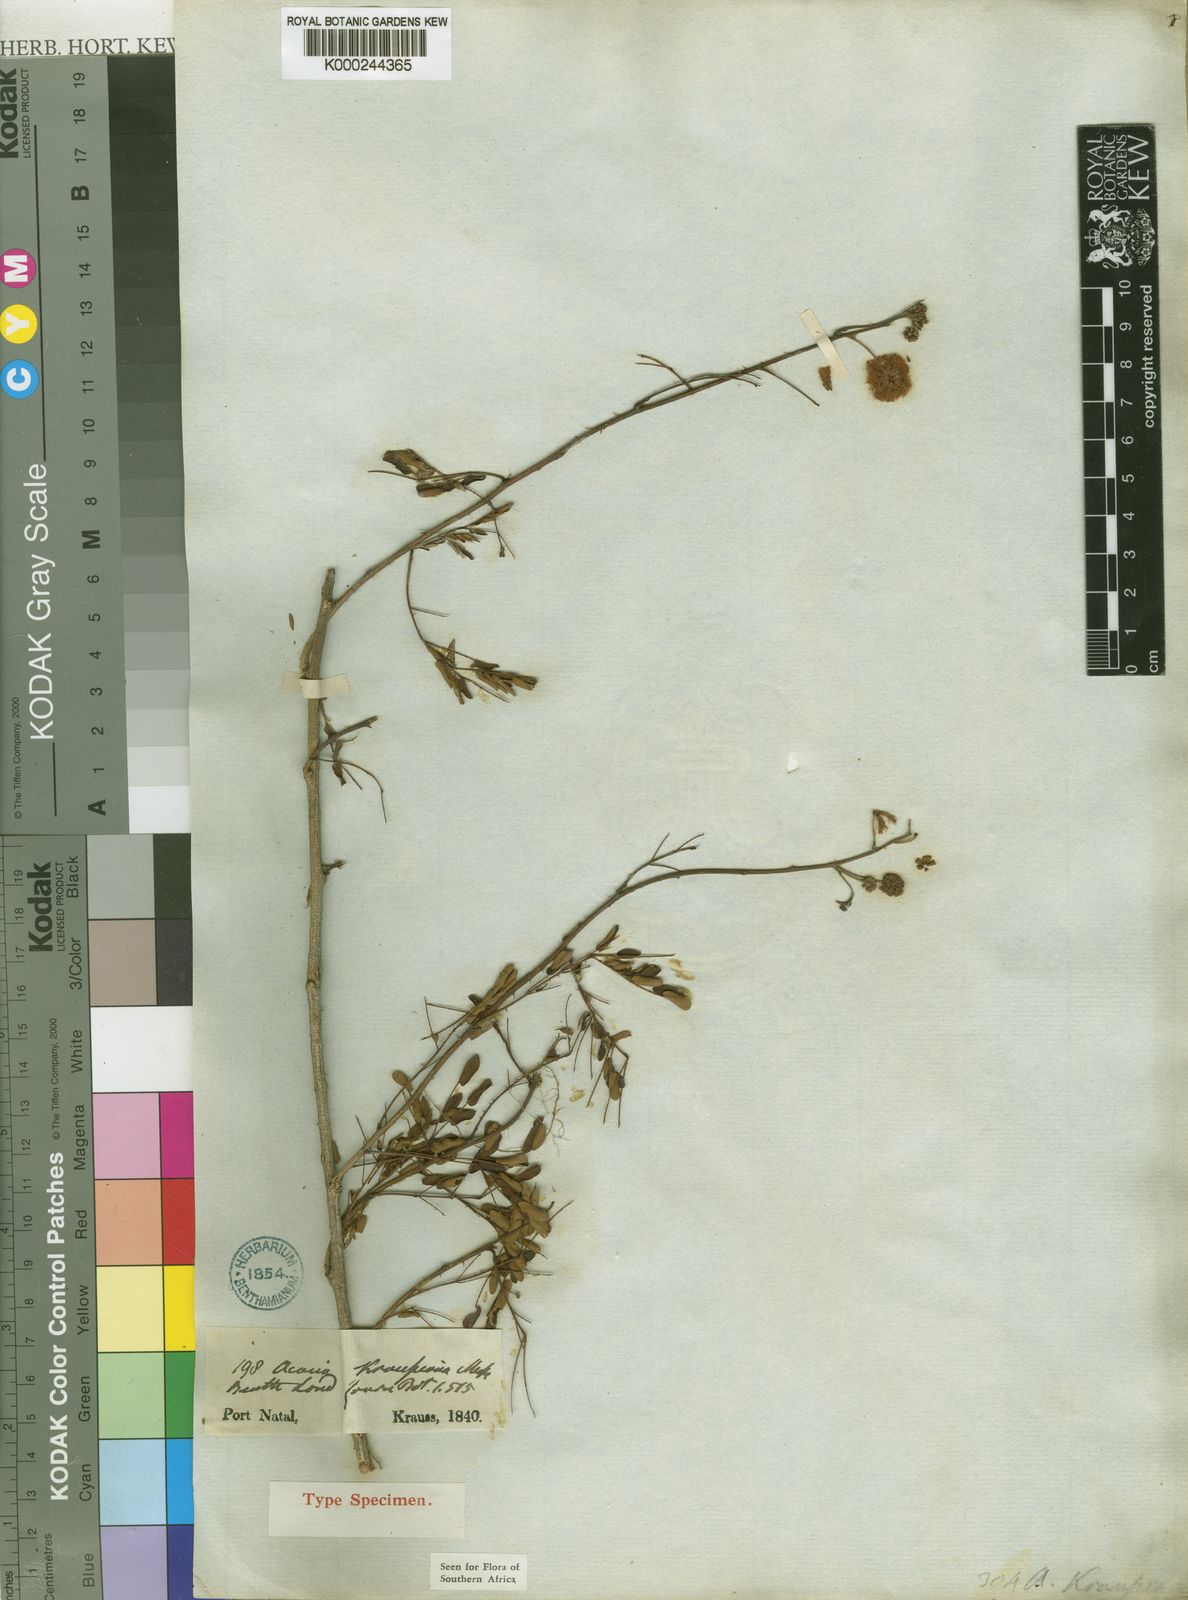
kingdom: Plantae
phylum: Tracheophyta
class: Magnoliopsida
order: Fabales
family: Fabaceae
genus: Senegalia
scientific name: Senegalia kraussiana
